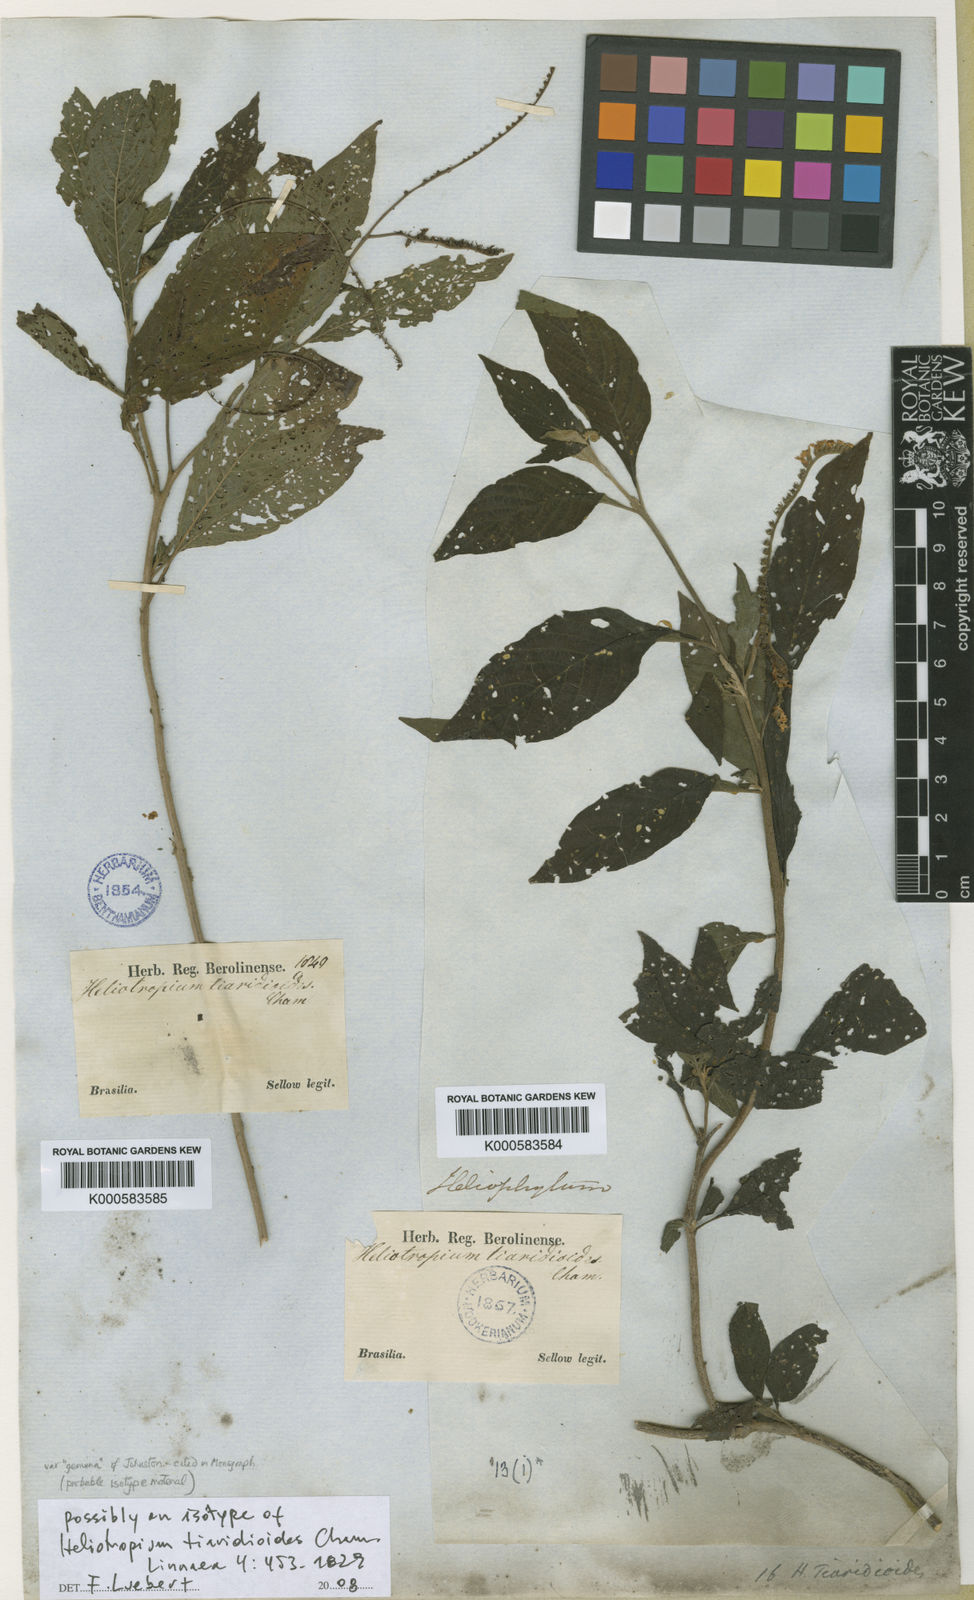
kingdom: Plantae
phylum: Tracheophyta
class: Magnoliopsida
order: Boraginales
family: Heliotropiaceae
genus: Heliotropium
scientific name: Heliotropium tiaridioides
